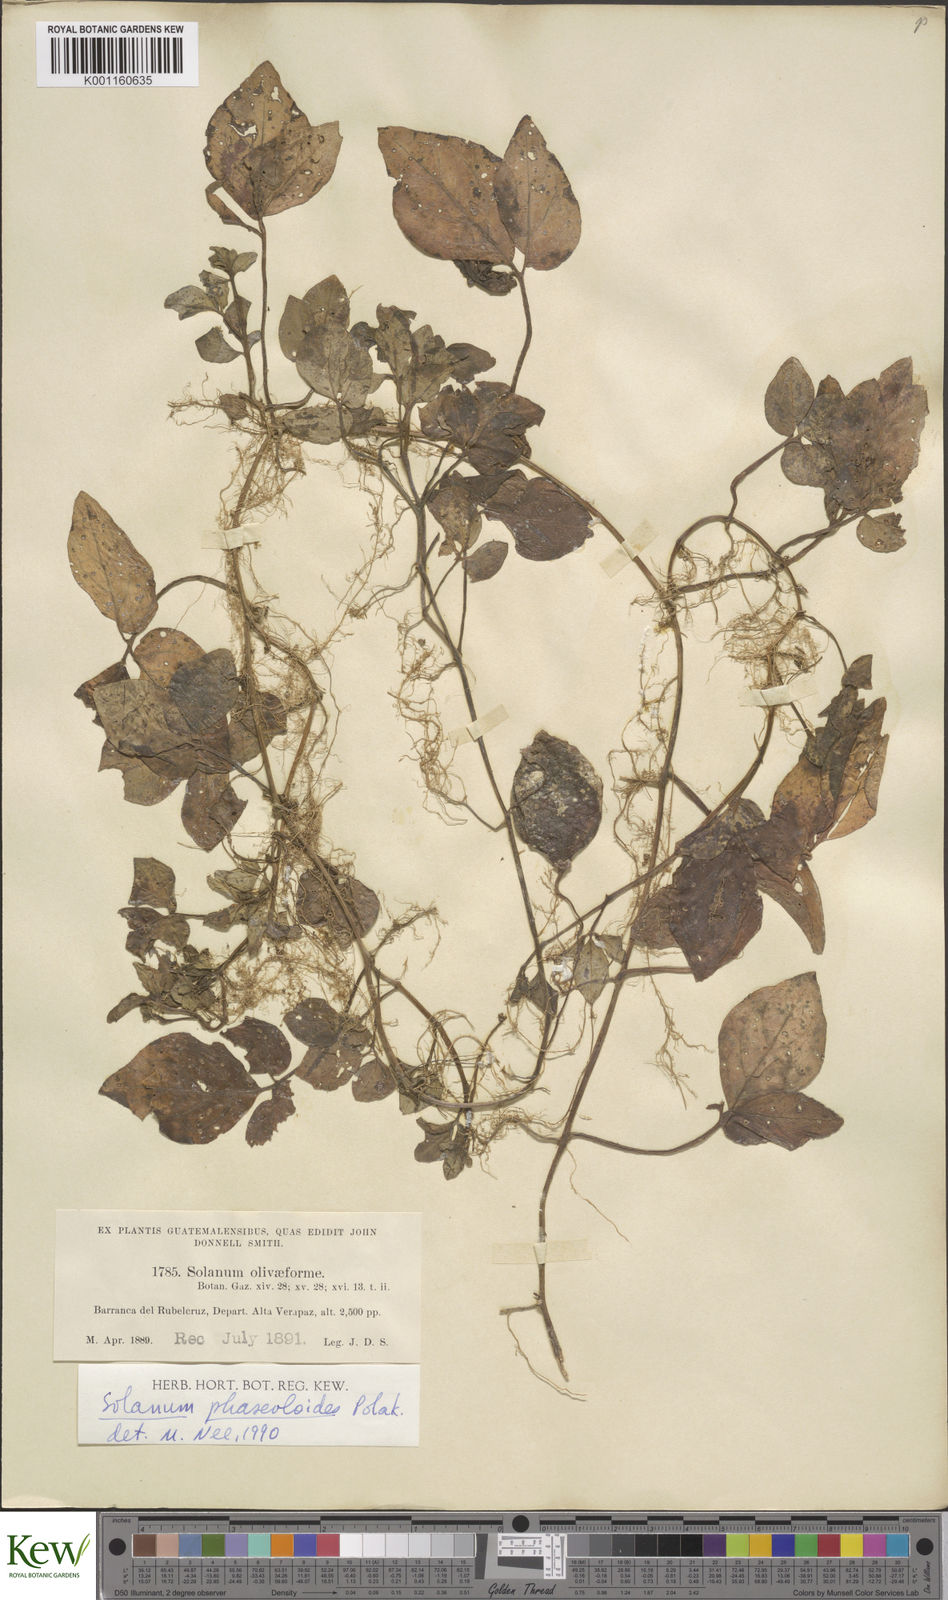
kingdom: Plantae
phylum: Tracheophyta
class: Magnoliopsida
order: Solanales
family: Solanaceae
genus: Solanum
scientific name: Solanum phaseoloides
